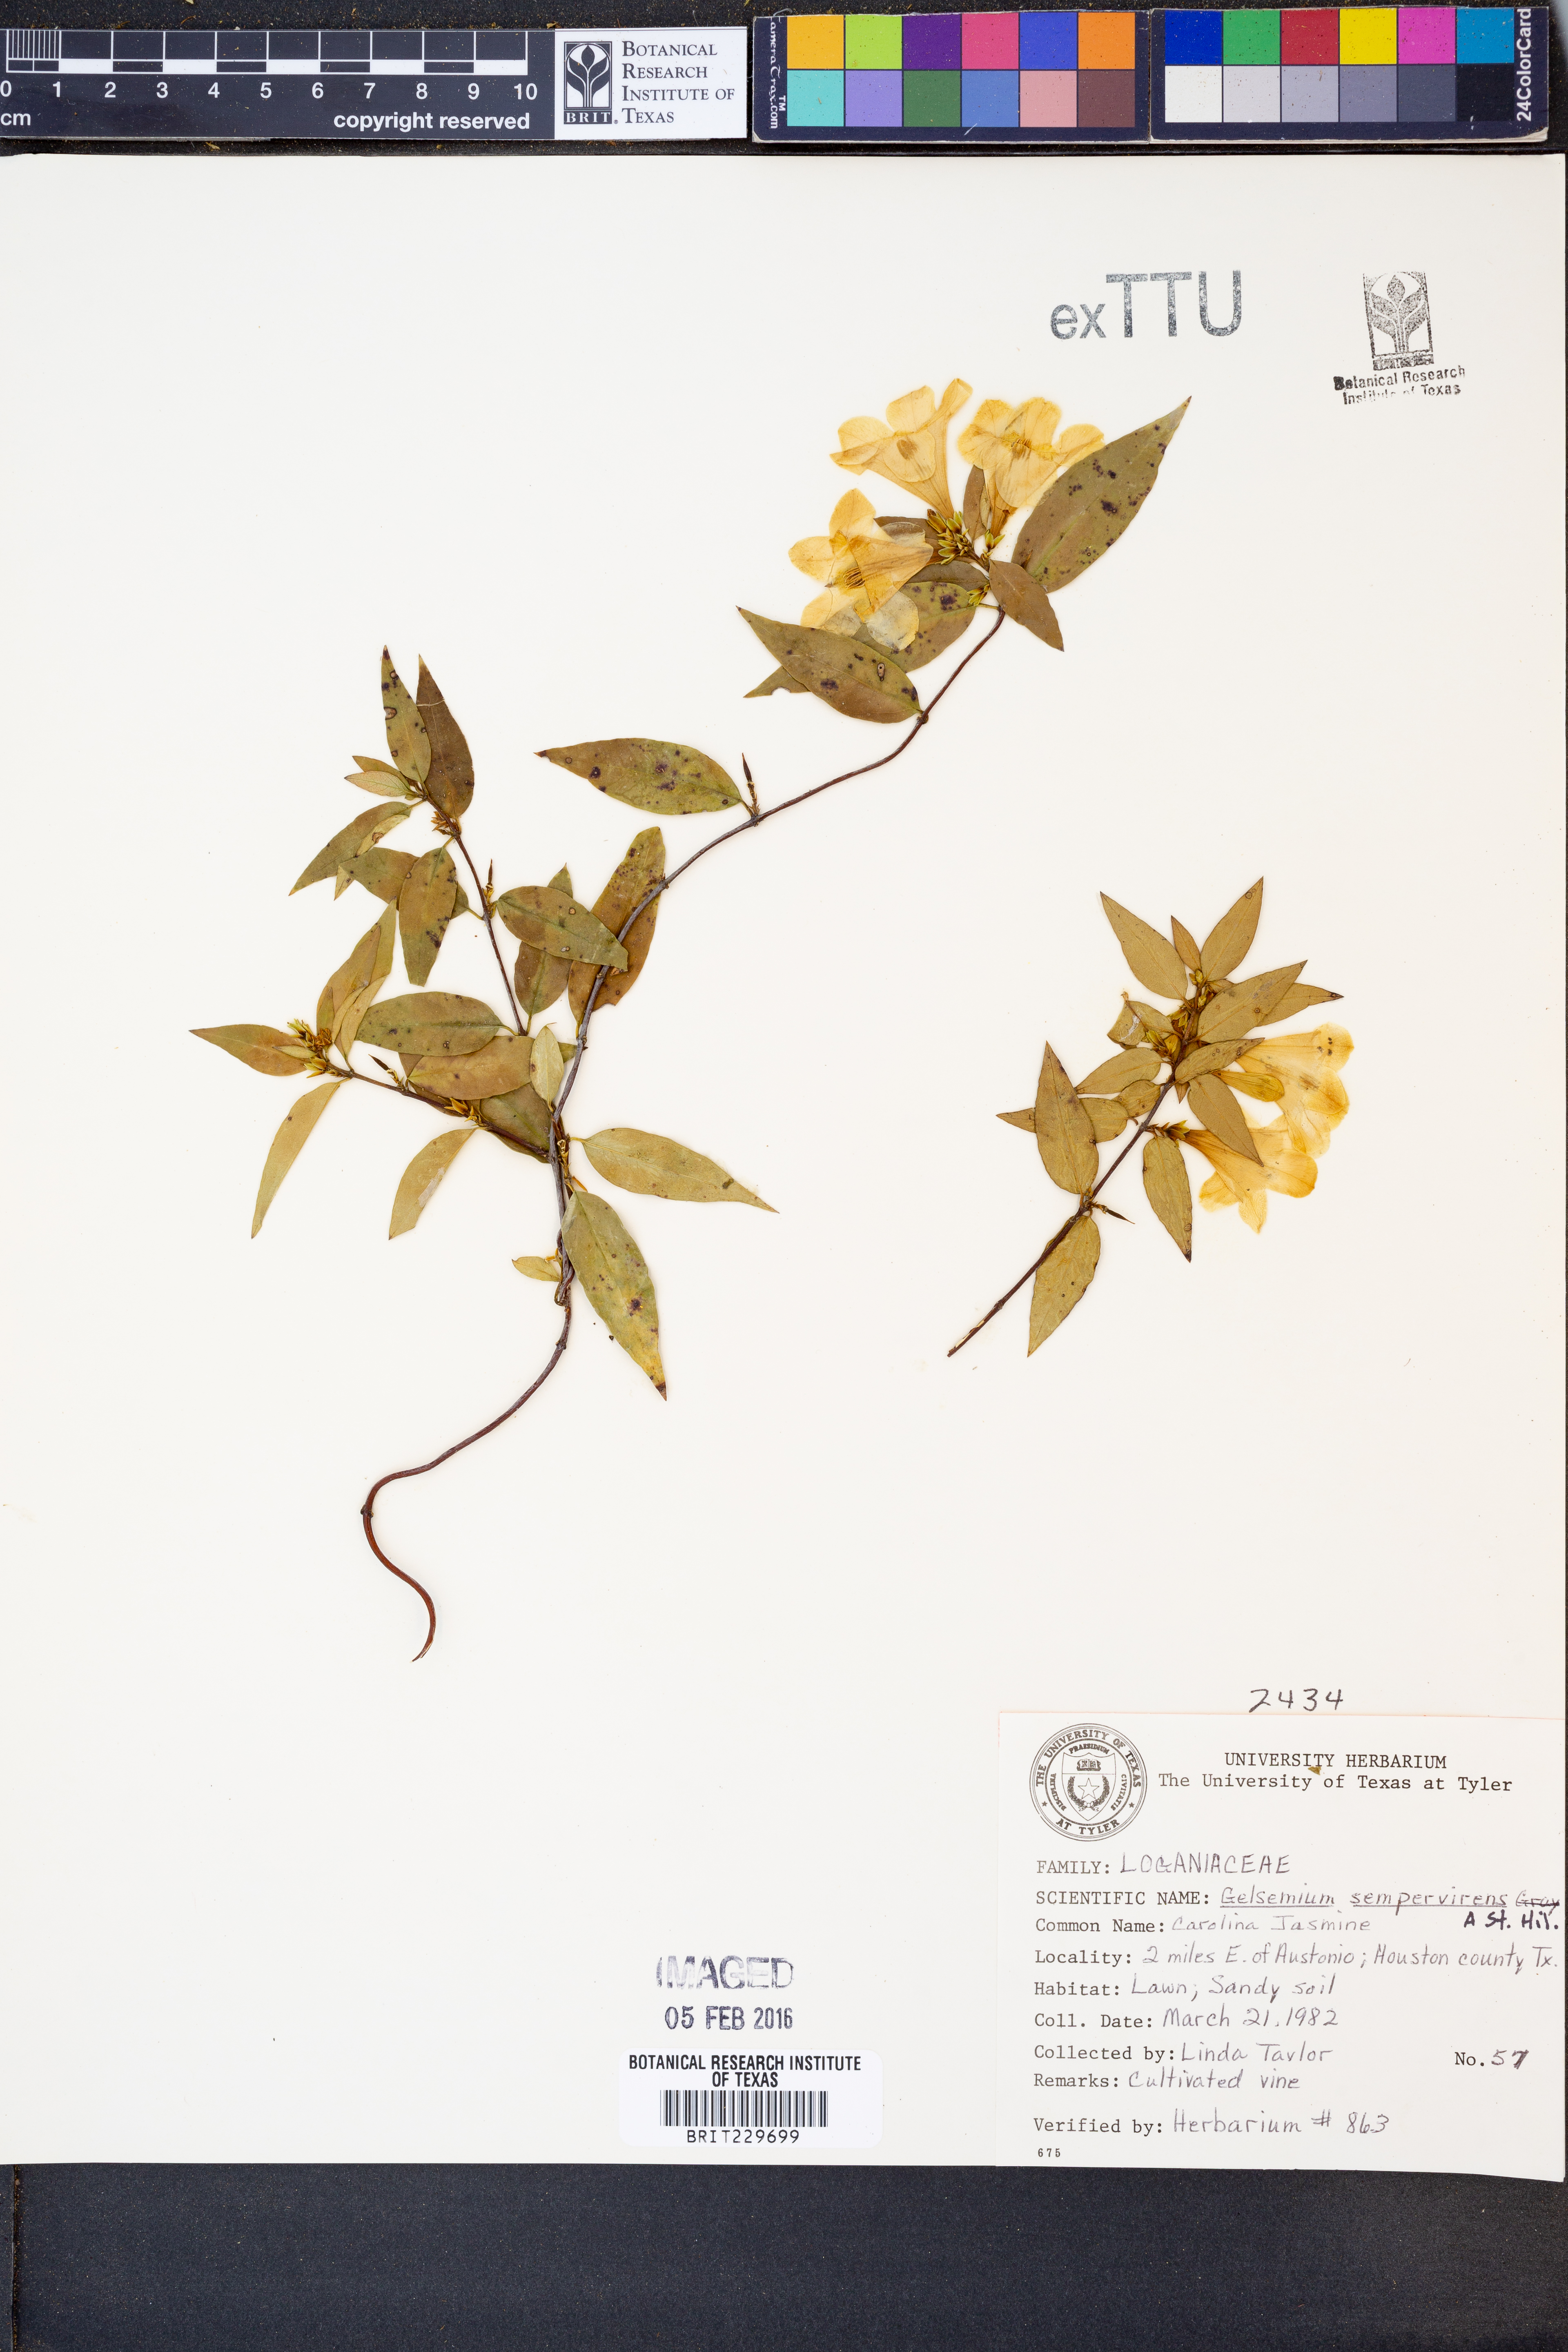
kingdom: Plantae
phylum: Tracheophyta
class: Magnoliopsida
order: Gentianales
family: Gelsemiaceae
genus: Gelsemium
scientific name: Gelsemium sempervirens
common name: Carolina-jasmine
